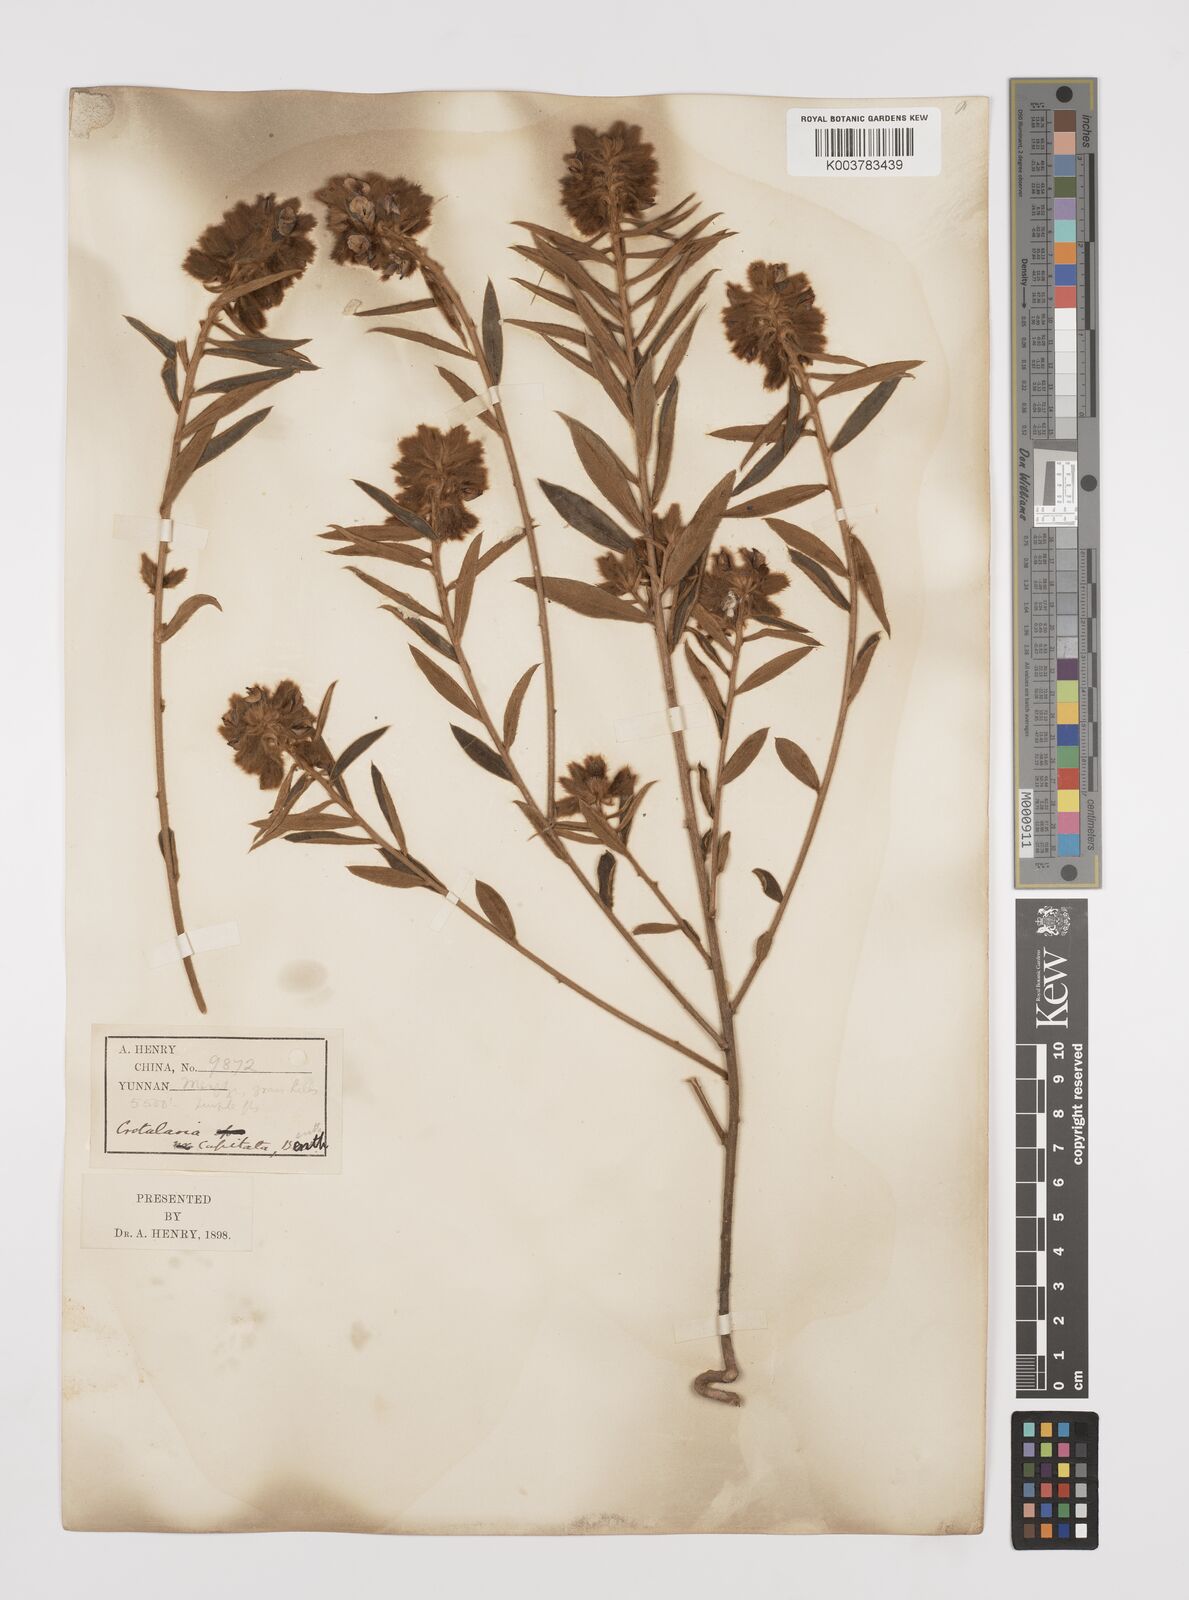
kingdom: Plantae
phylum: Tracheophyta
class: Magnoliopsida
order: Fabales
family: Fabaceae
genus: Liparia
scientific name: Liparia capitata
